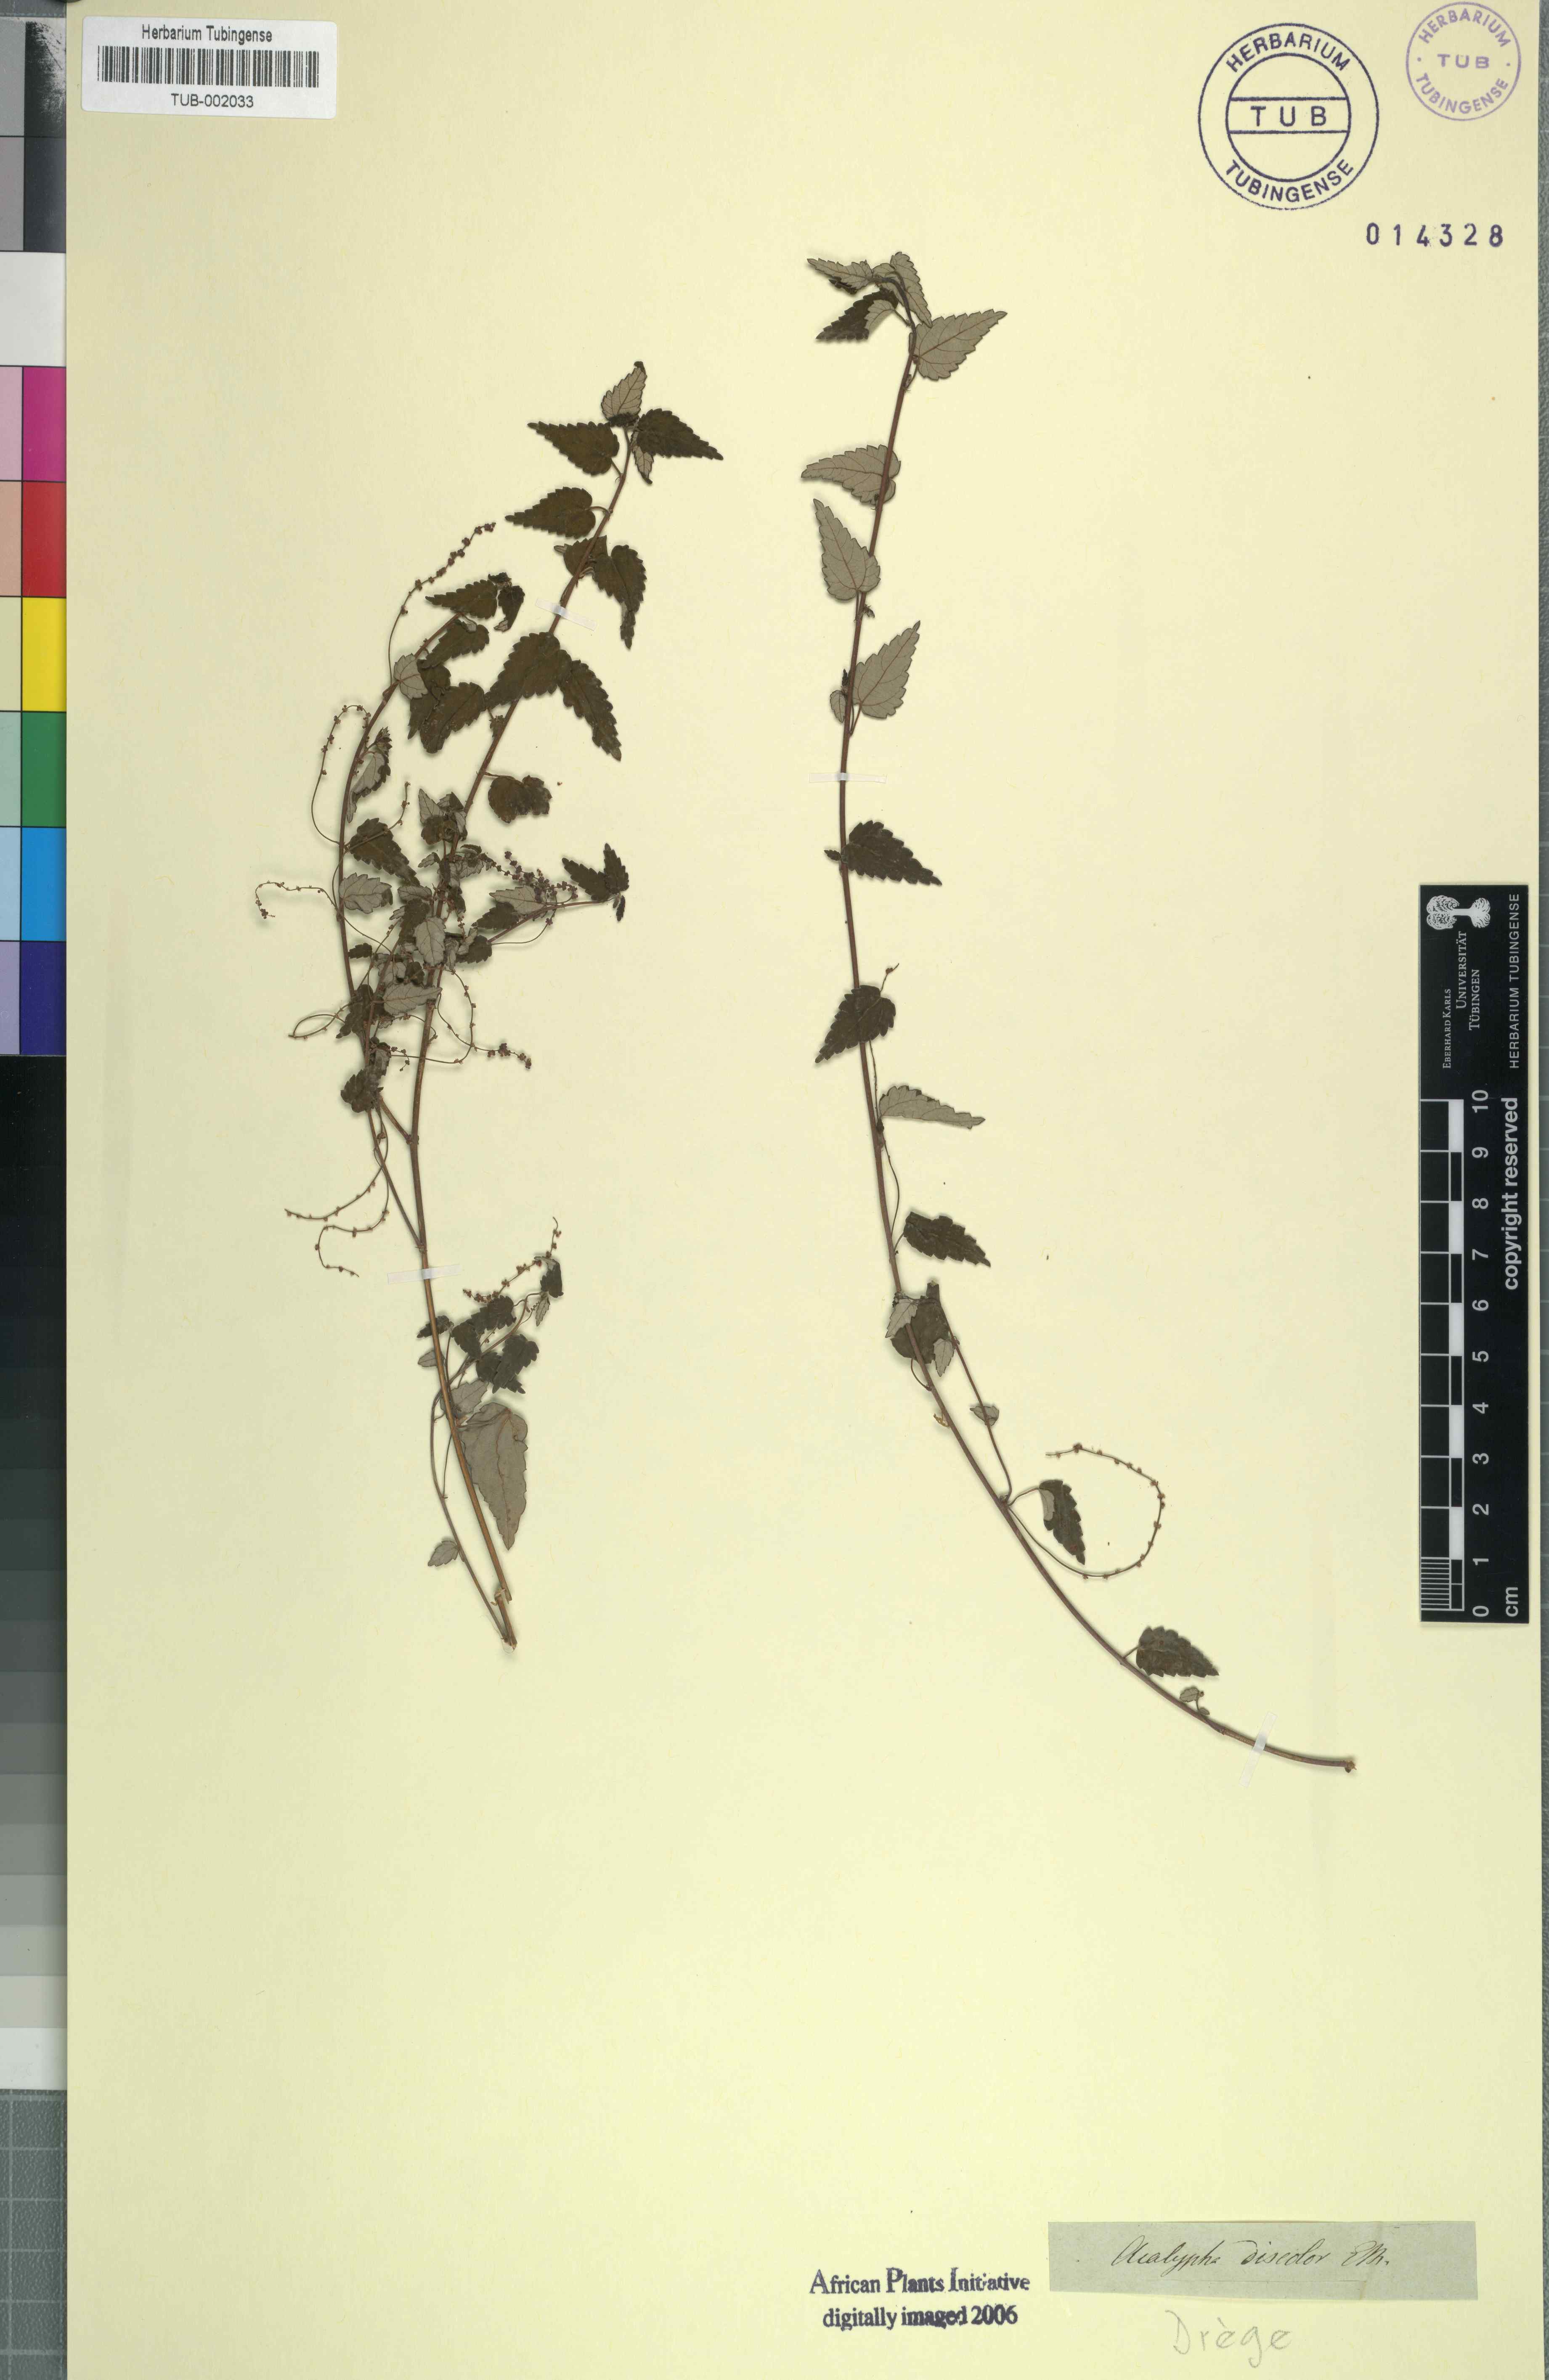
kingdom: Plantae
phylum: Tracheophyta
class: Magnoliopsida
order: Rosales
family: Urticaceae
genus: Didymodoxa
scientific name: Didymodoxa capensis
